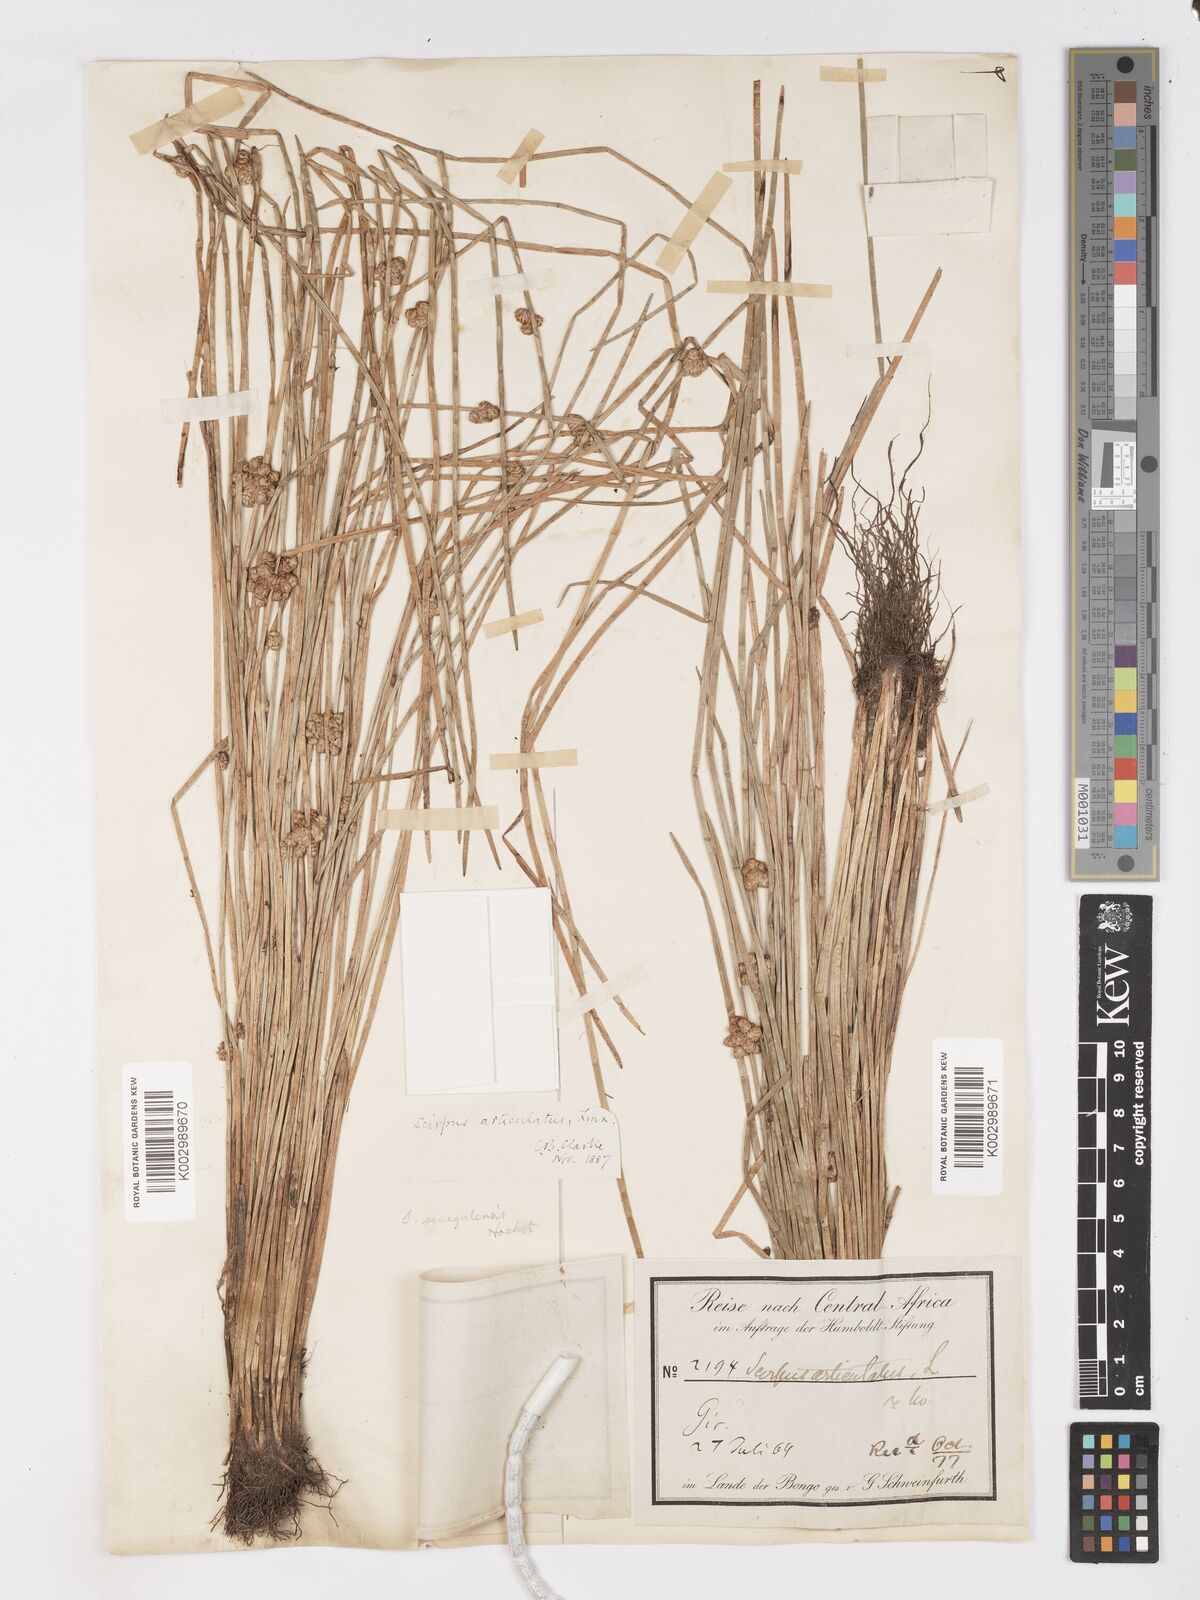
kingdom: Plantae
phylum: Tracheophyta
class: Liliopsida
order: Poales
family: Cyperaceae
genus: Schoenoplectiella
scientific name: Schoenoplectiella senegalensis
